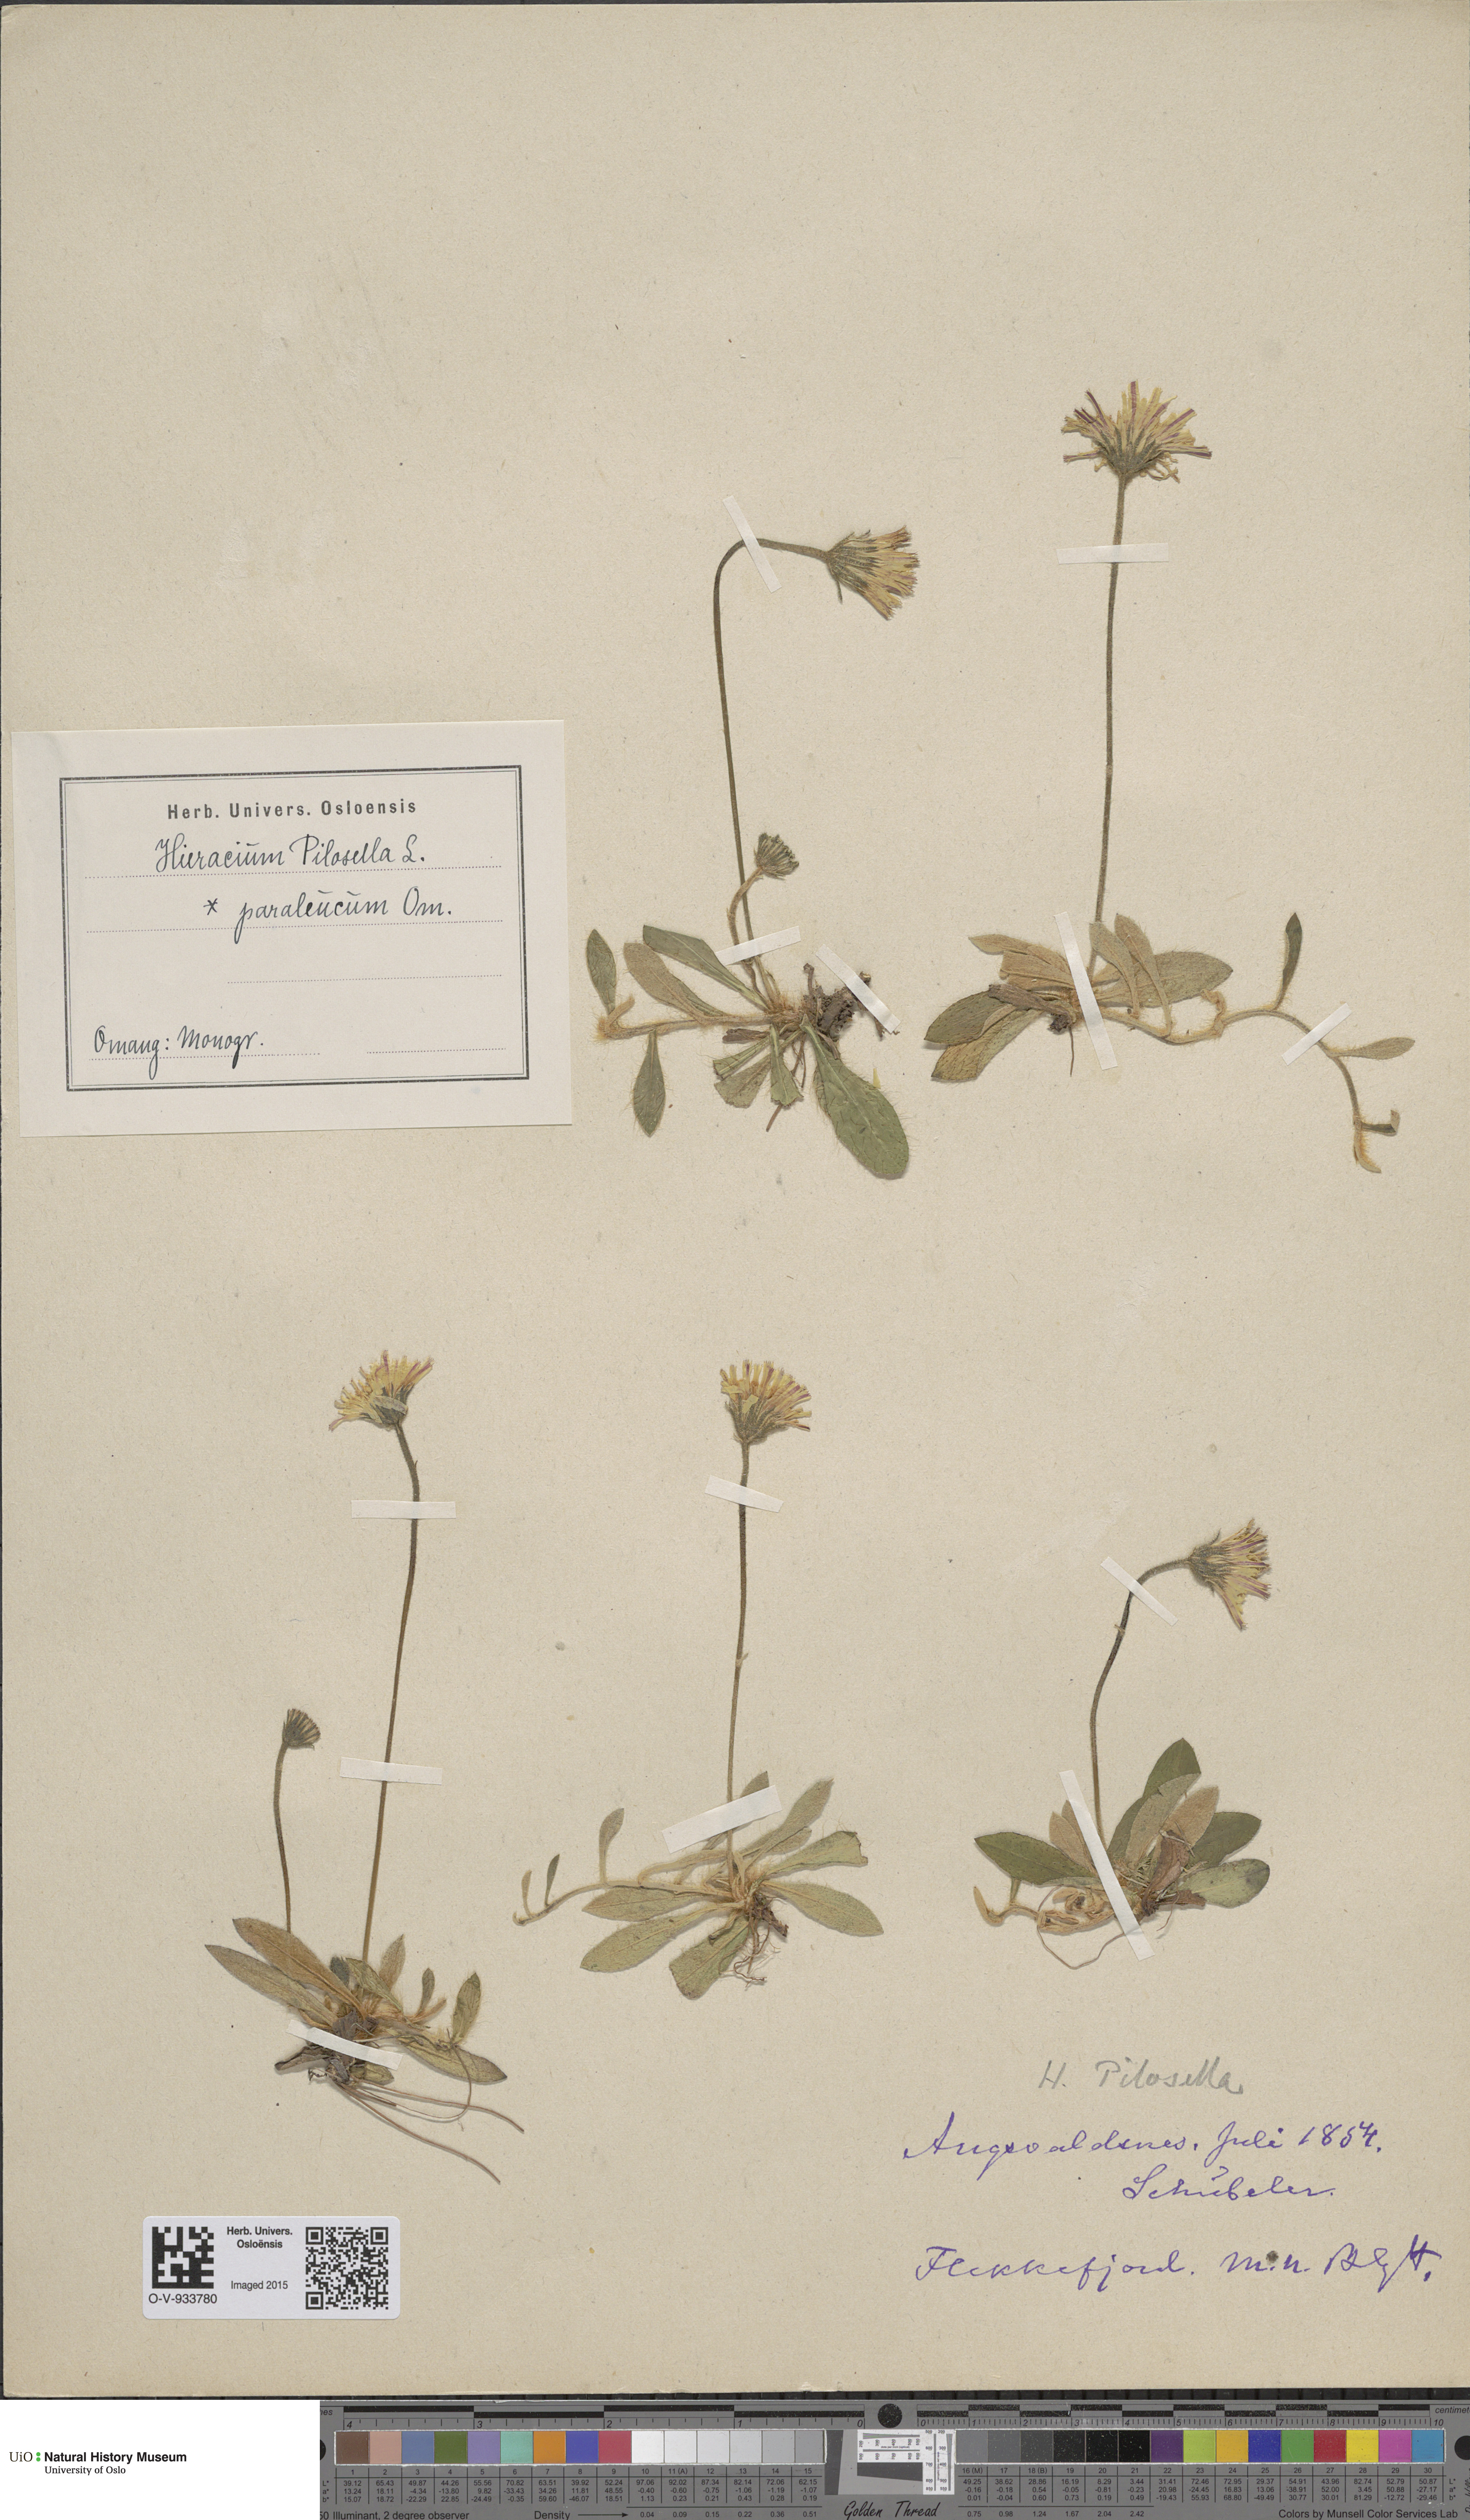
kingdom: Plantae
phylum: Tracheophyta
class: Magnoliopsida
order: Asterales
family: Asteraceae
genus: Pilosella
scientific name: Pilosella officinarum
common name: Mouse-ear hawkweed
